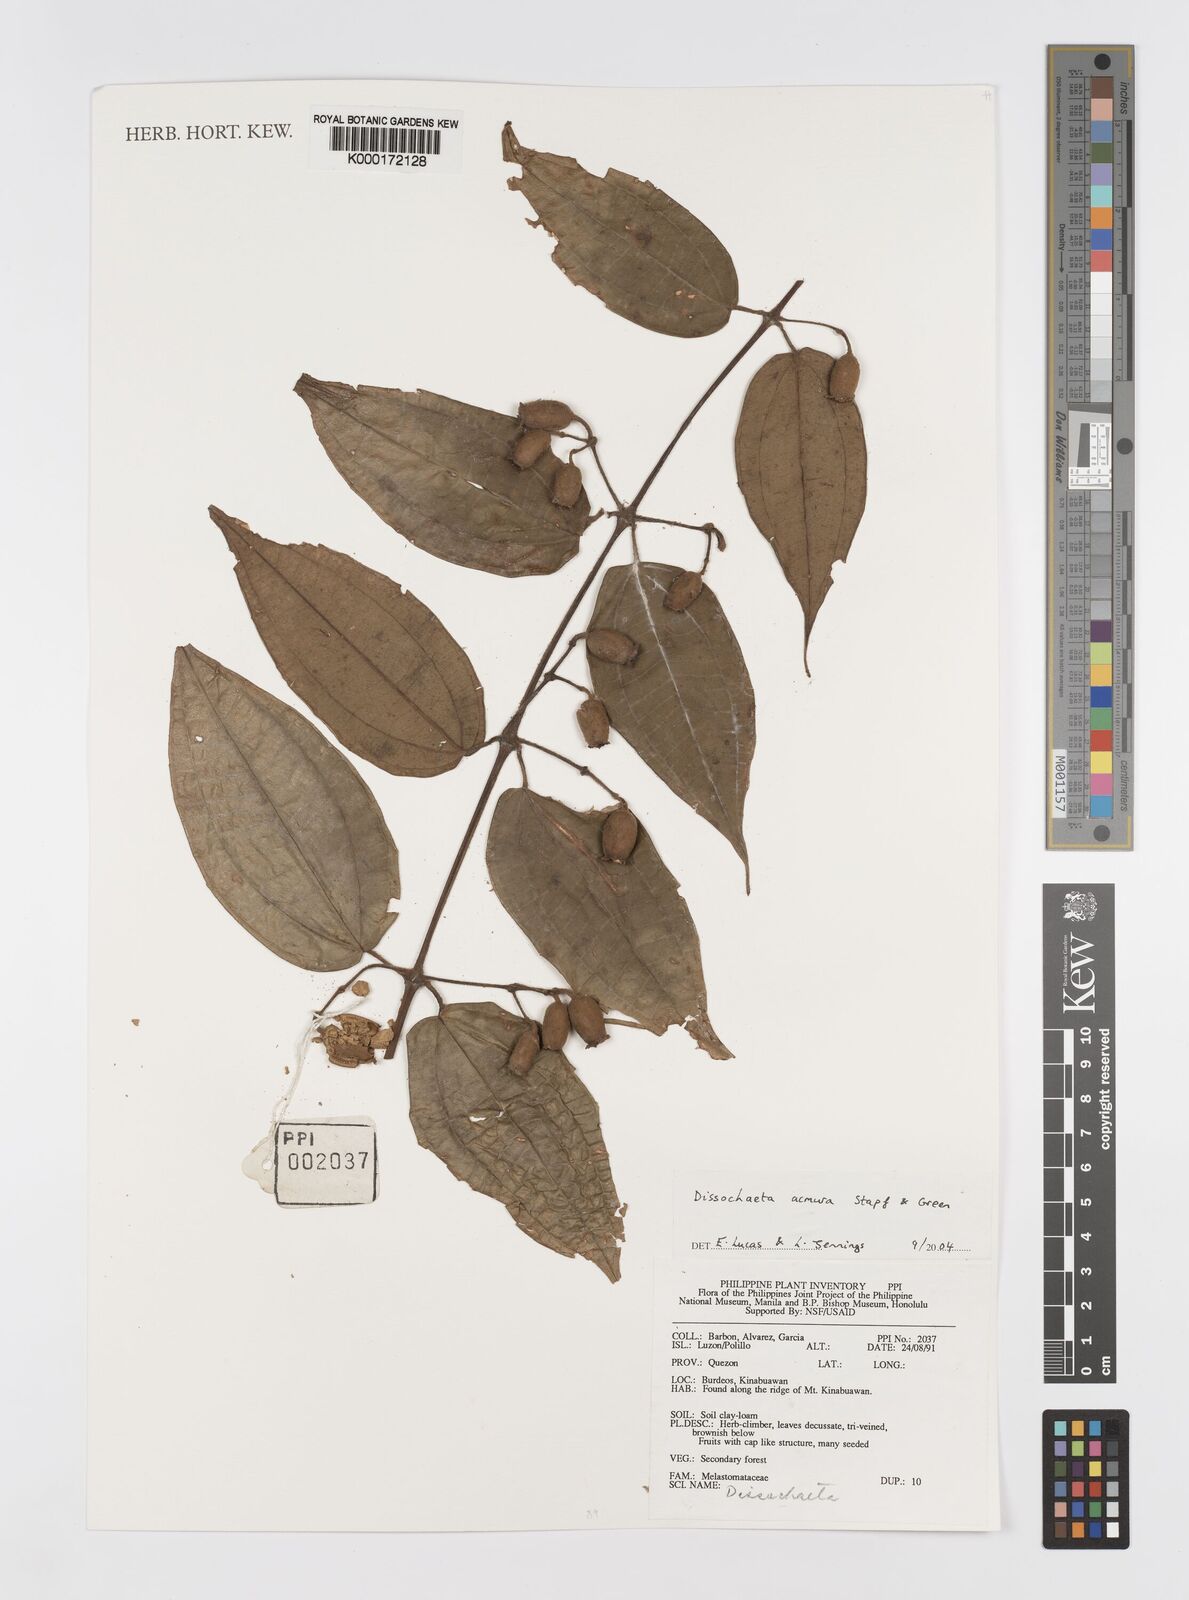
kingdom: Plantae
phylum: Tracheophyta
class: Magnoliopsida
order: Myrtales
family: Melastomataceae
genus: Dissochaeta
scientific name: Dissochaeta acmura
